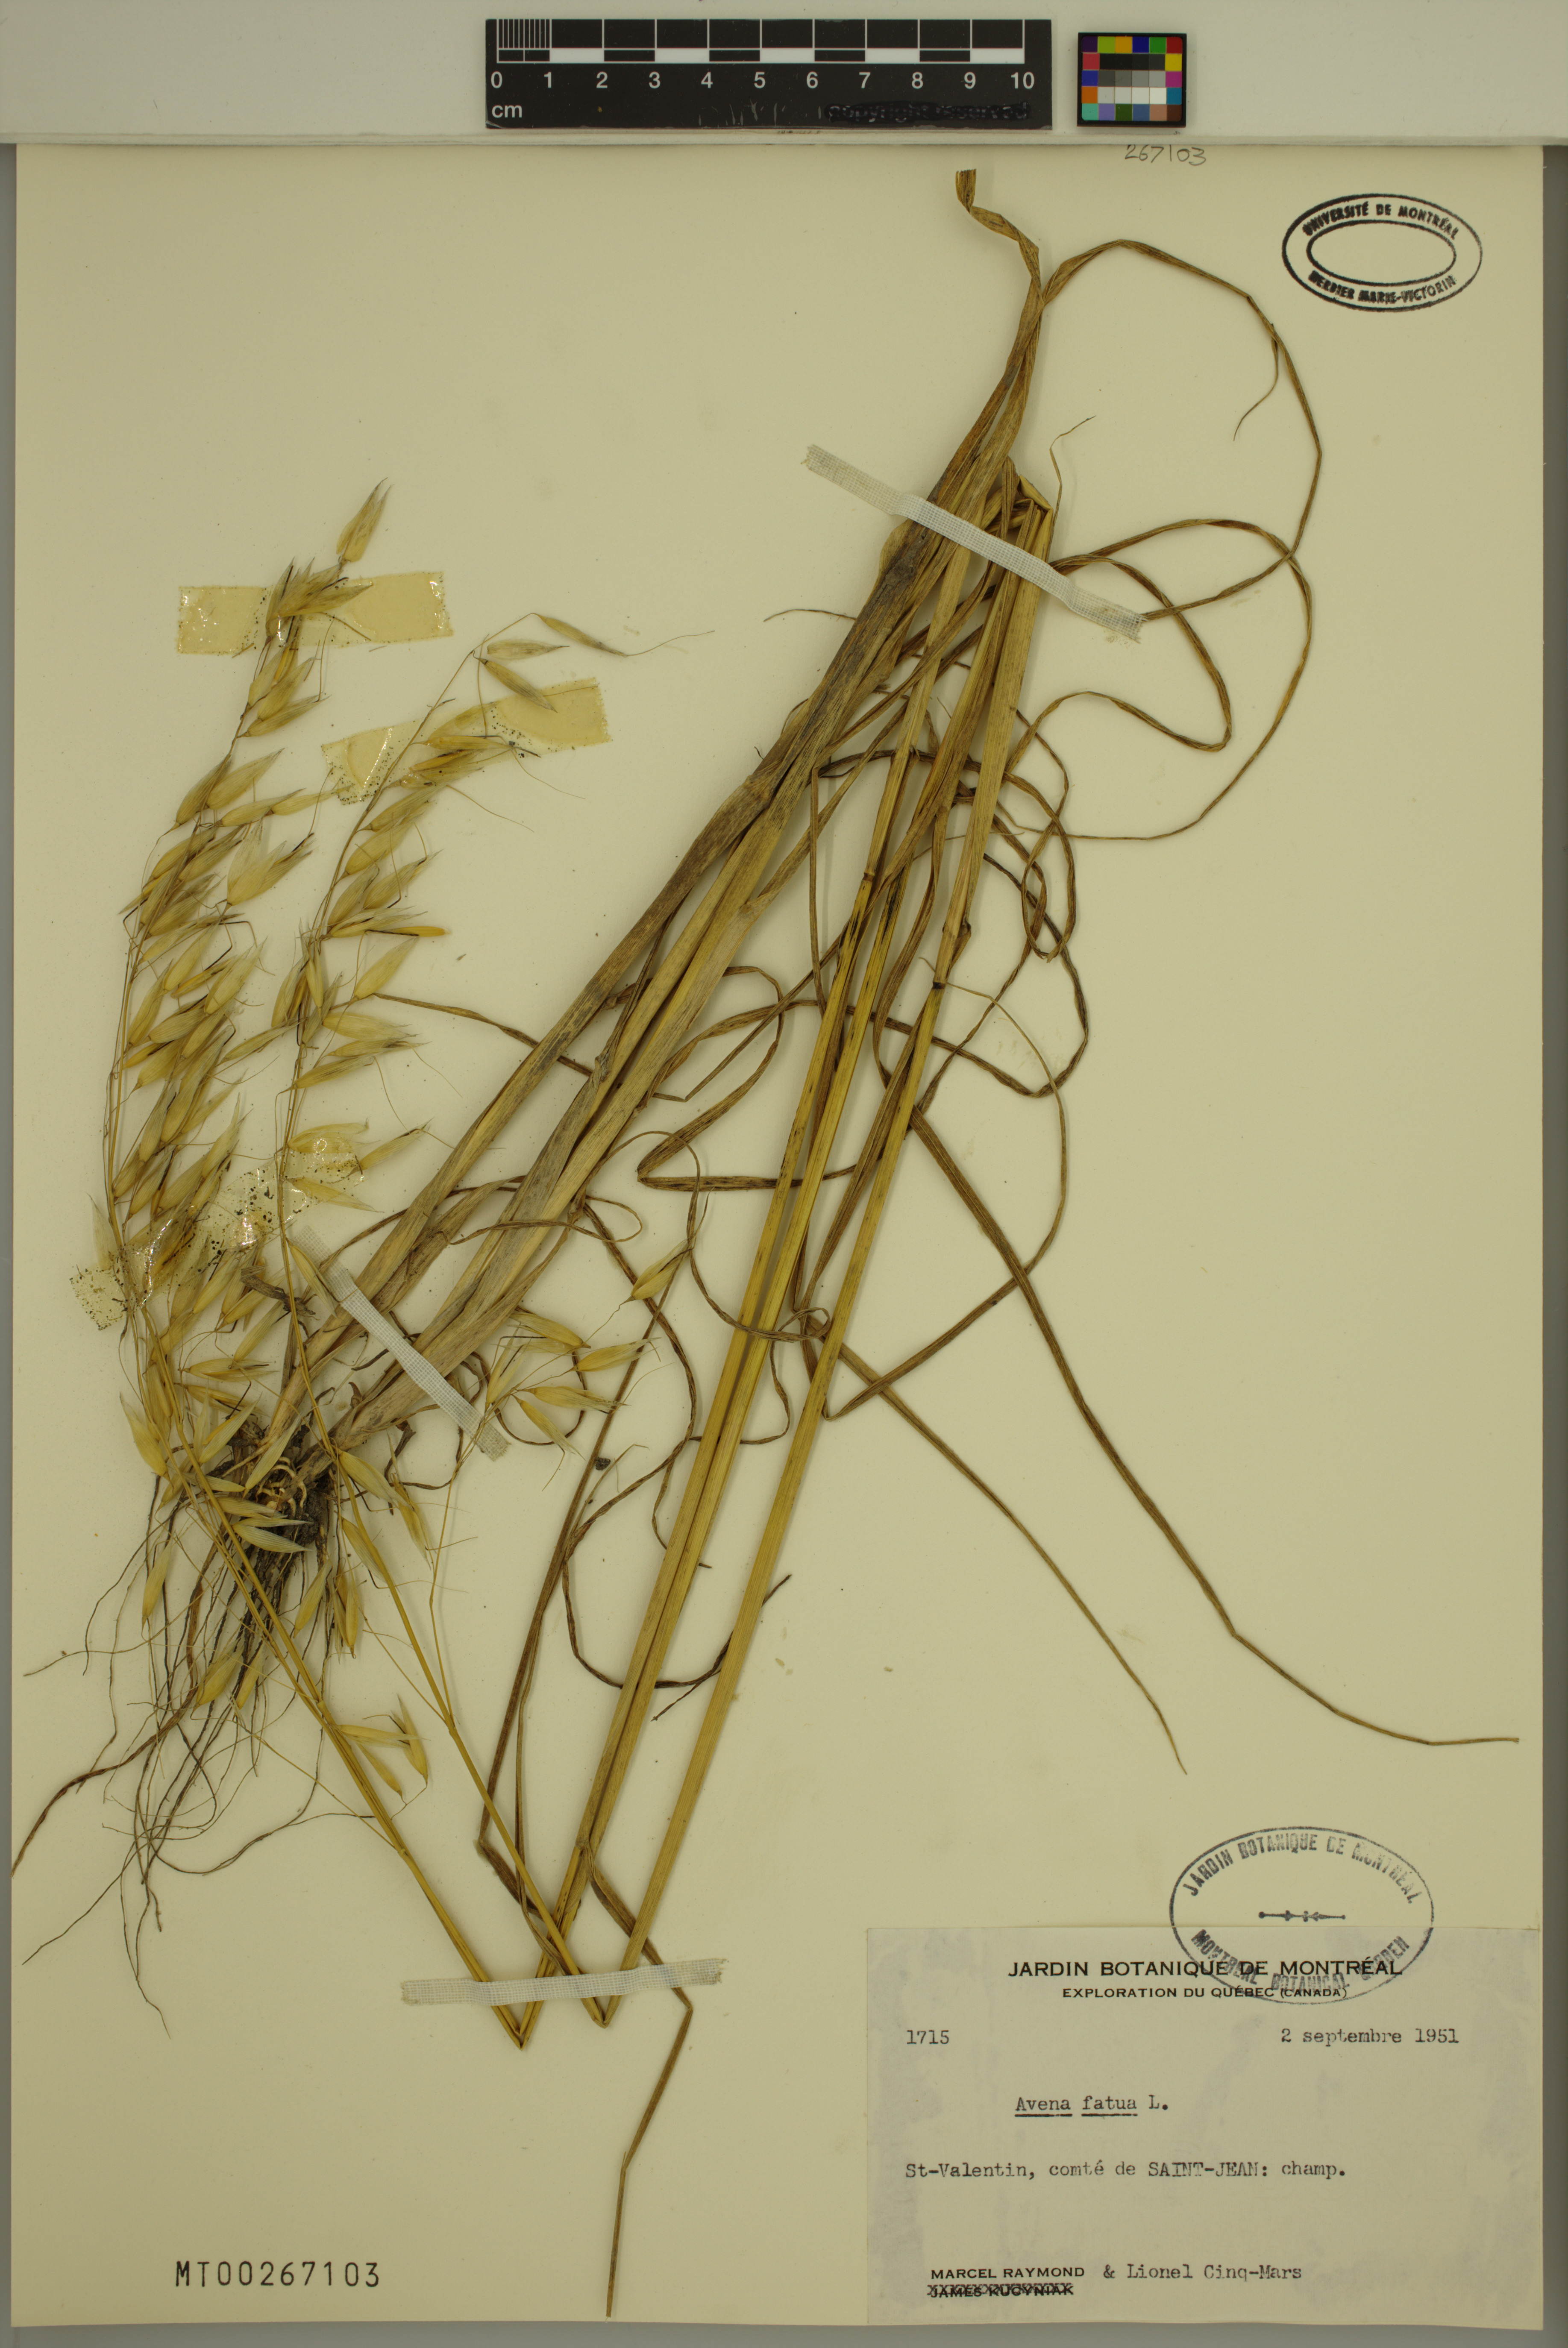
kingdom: Plantae
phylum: Tracheophyta
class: Liliopsida
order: Poales
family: Poaceae
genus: Avena
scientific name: Avena fatua
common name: Wild oat
